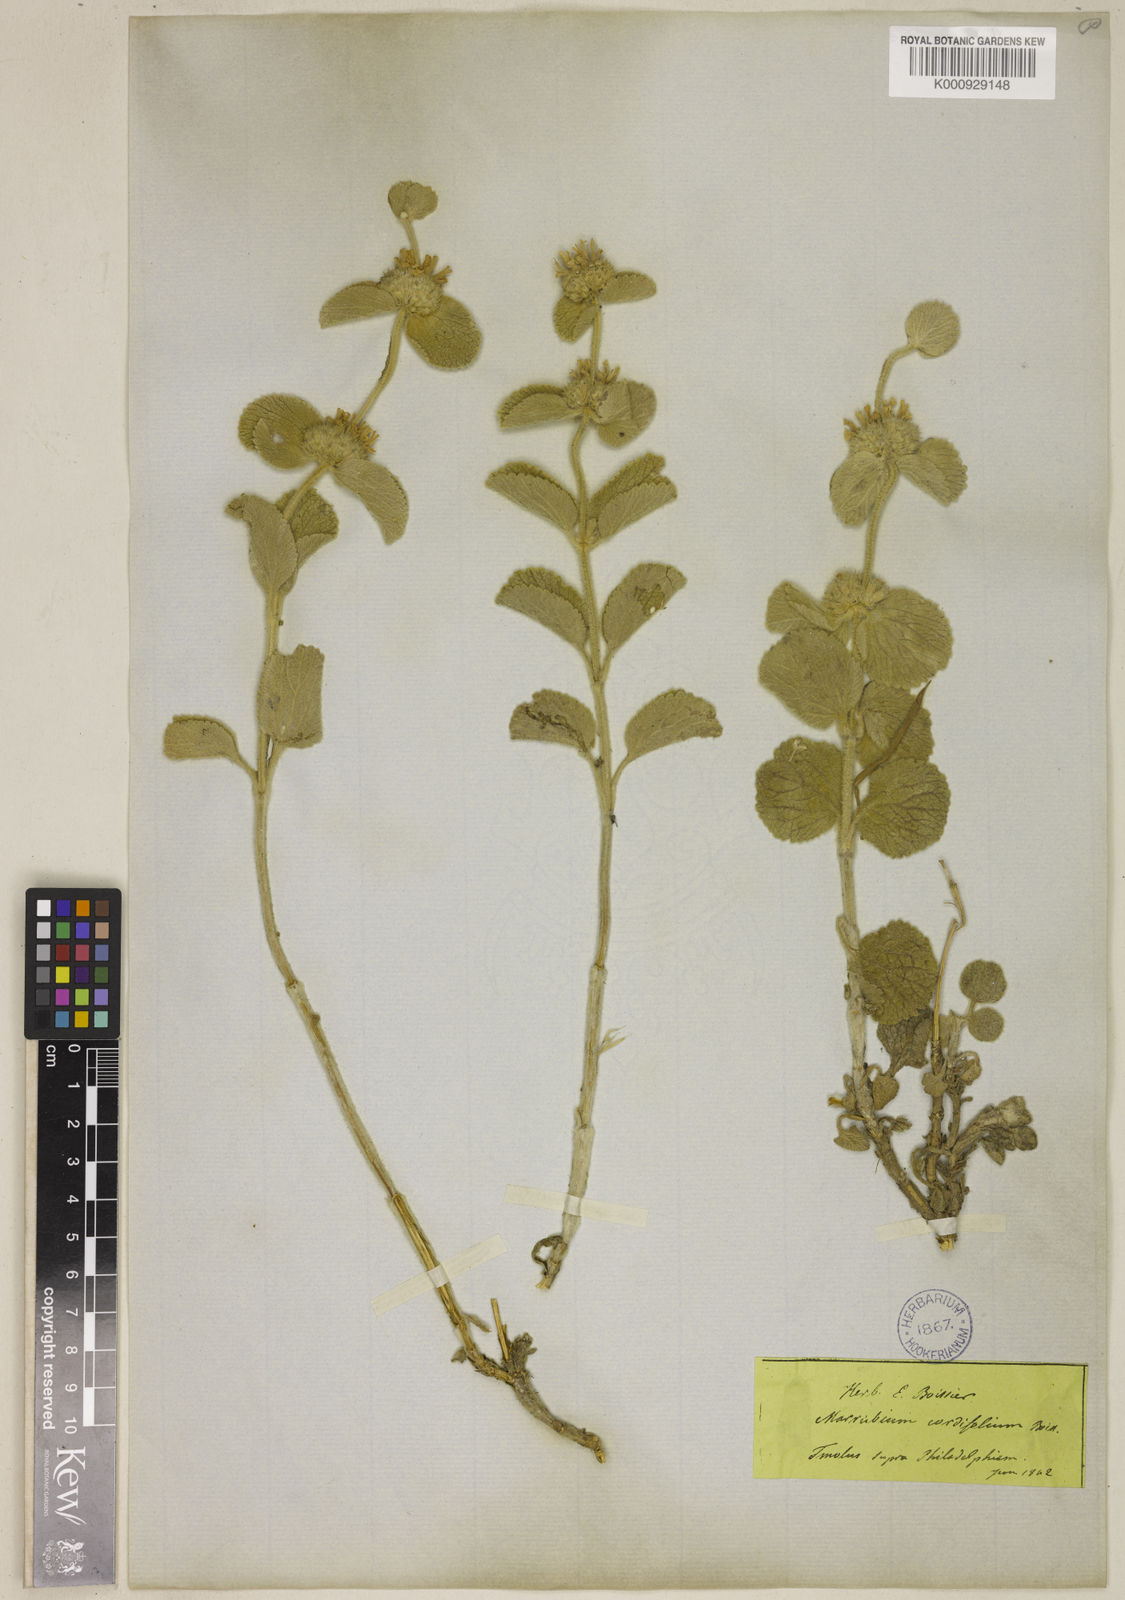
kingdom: Plantae
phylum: Tracheophyta
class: Magnoliopsida
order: Lamiales
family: Lamiaceae
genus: Marrubium
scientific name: Marrubium rotundifolium
